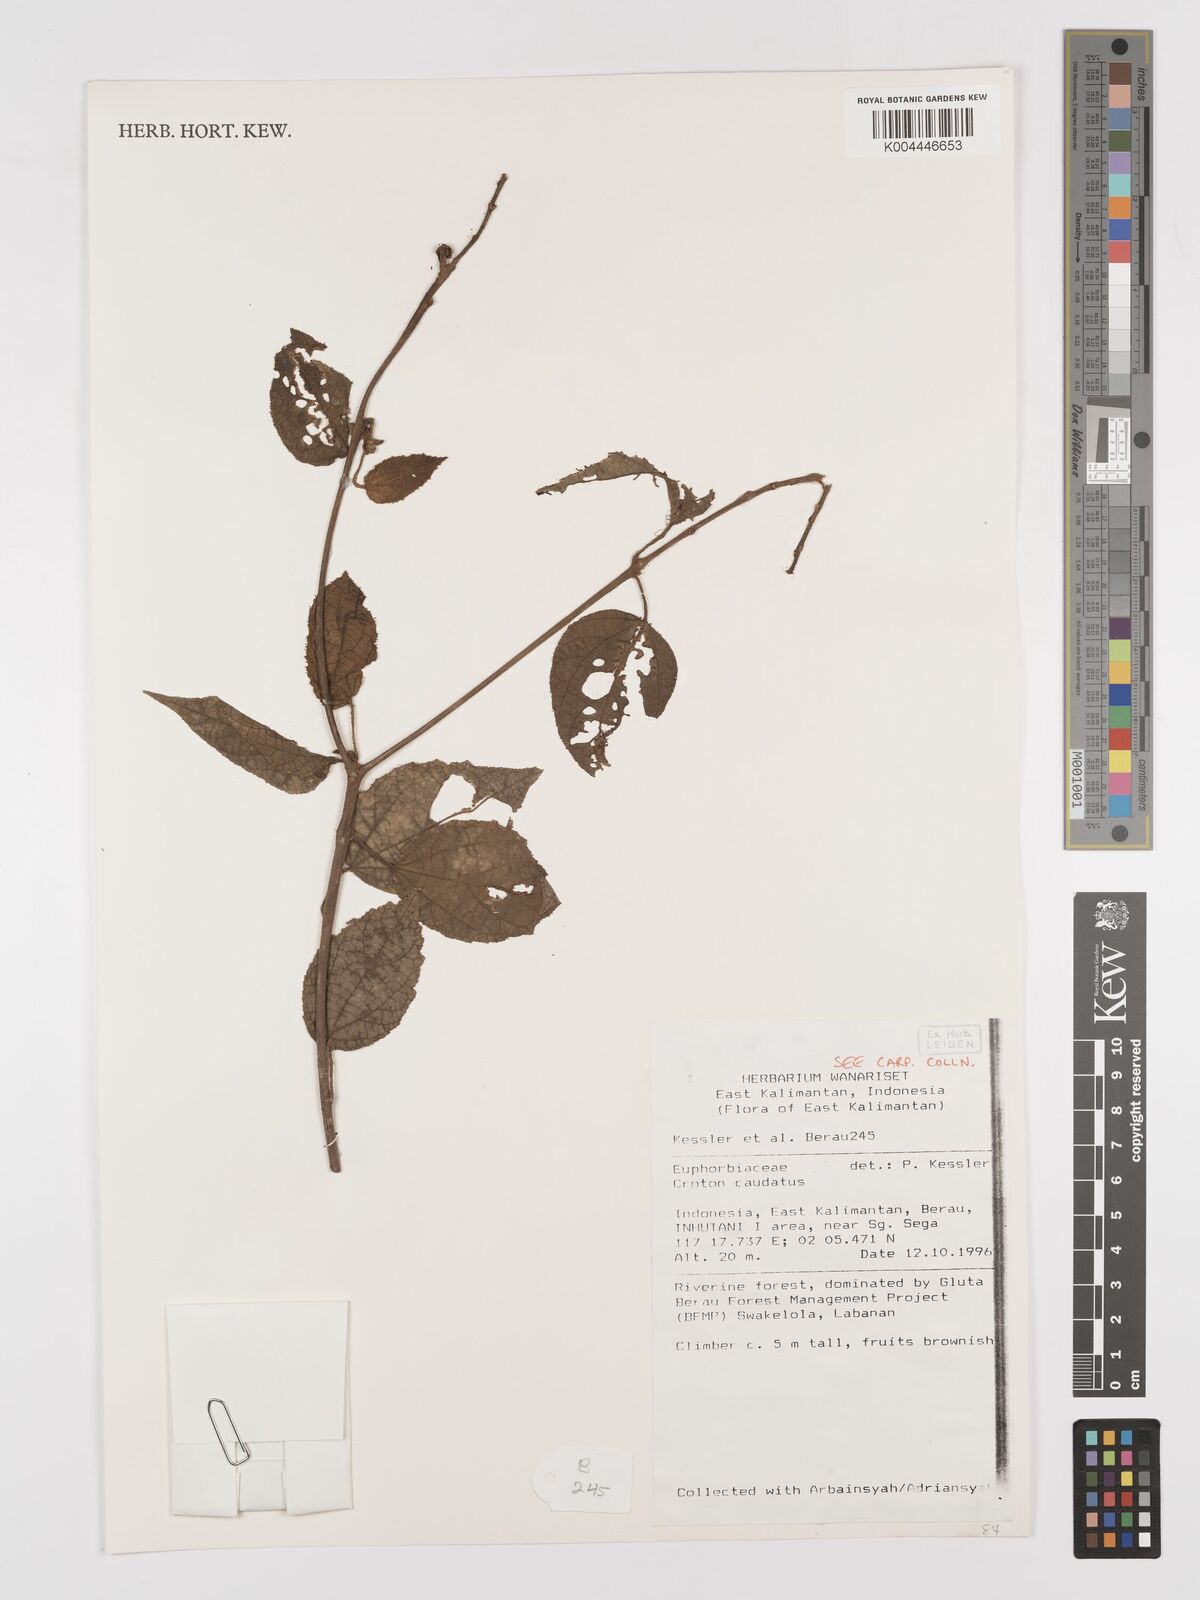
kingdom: Plantae
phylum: Tracheophyta
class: Magnoliopsida
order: Malpighiales
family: Euphorbiaceae
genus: Croton
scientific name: Croton caudatus
